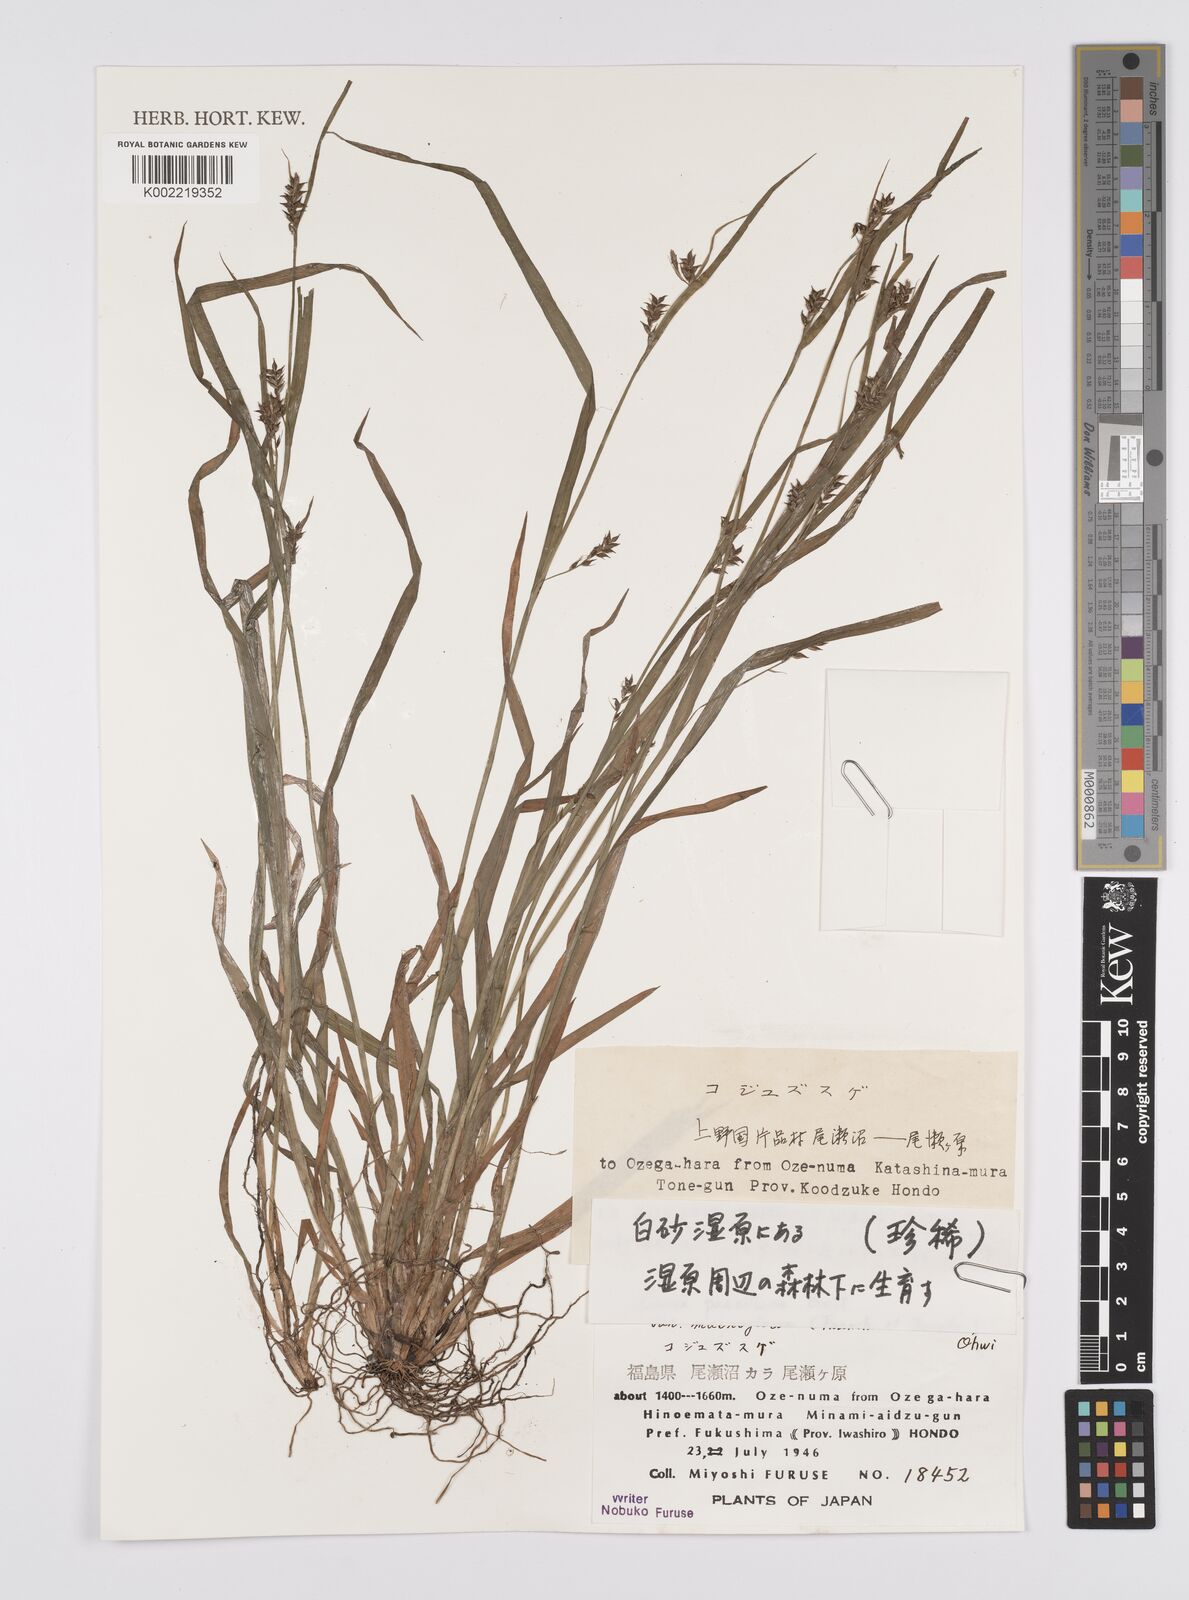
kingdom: Plantae
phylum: Tracheophyta
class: Liliopsida
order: Poales
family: Cyperaceae
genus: Carex
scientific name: Carex pauciflora
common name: Few-flowered sedge
